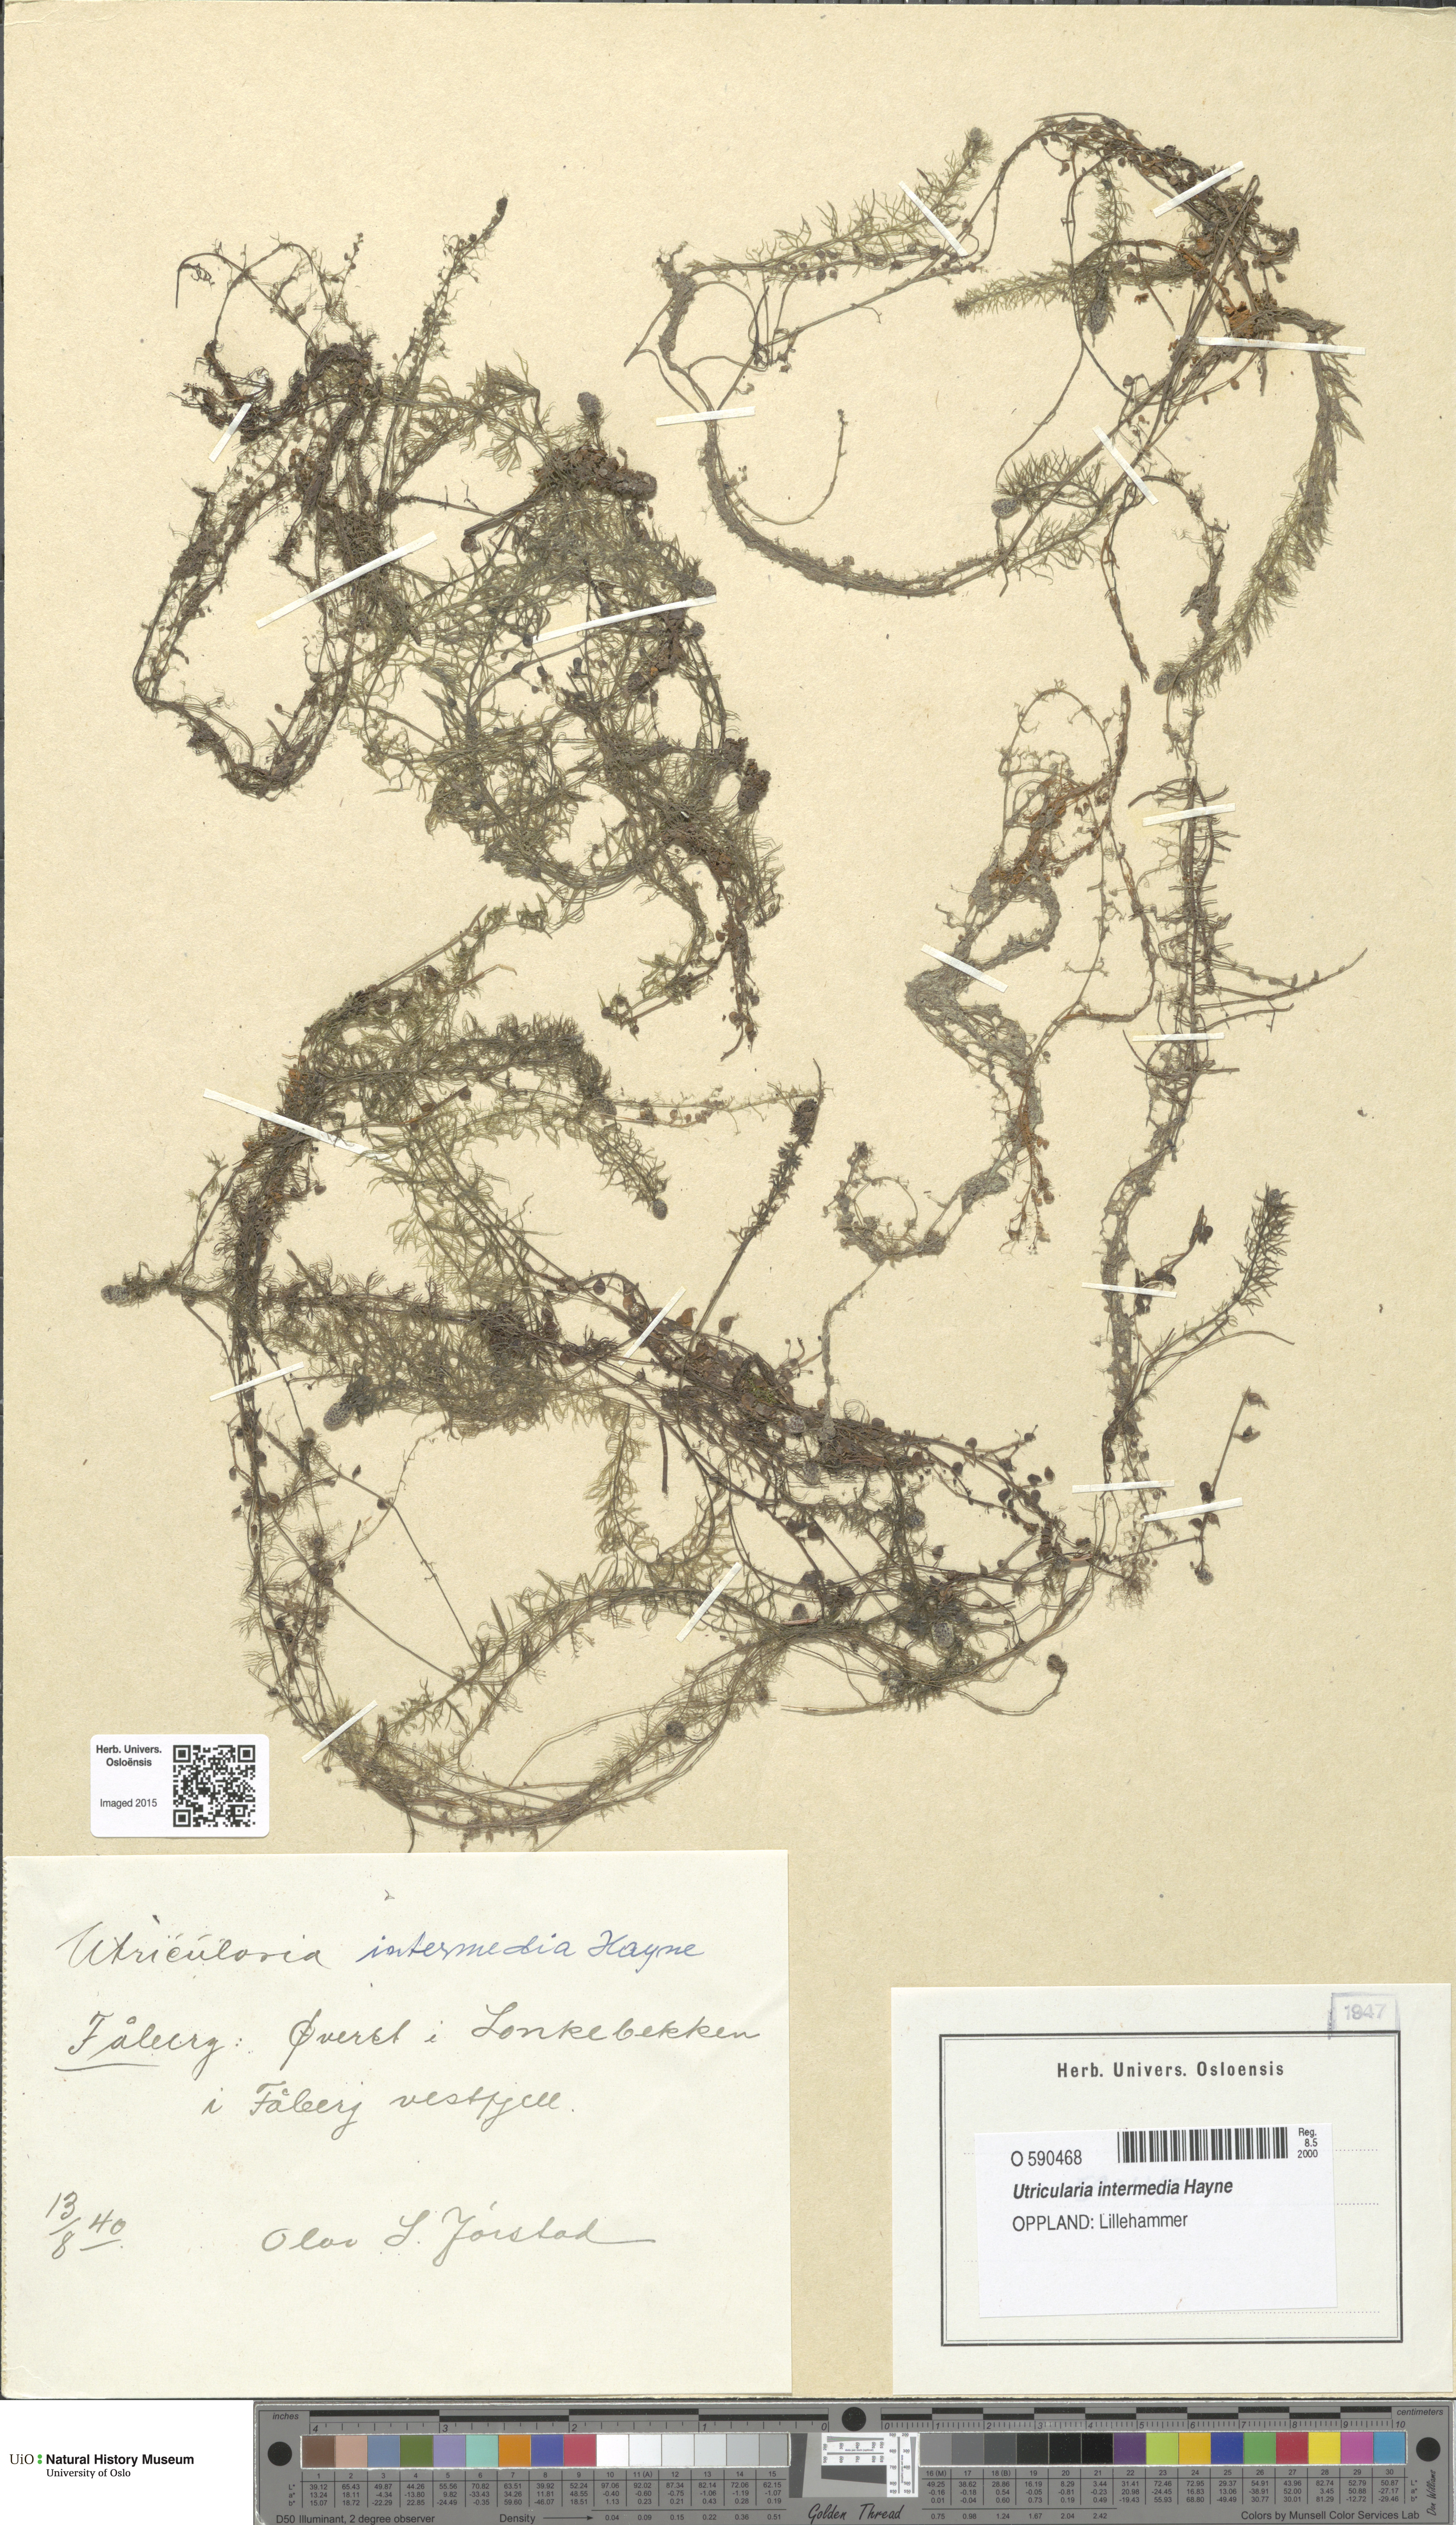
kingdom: Plantae
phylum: Tracheophyta
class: Magnoliopsida
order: Lamiales
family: Lentibulariaceae
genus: Utricularia
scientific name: Utricularia intermedia
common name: Intermediate bladderwort
